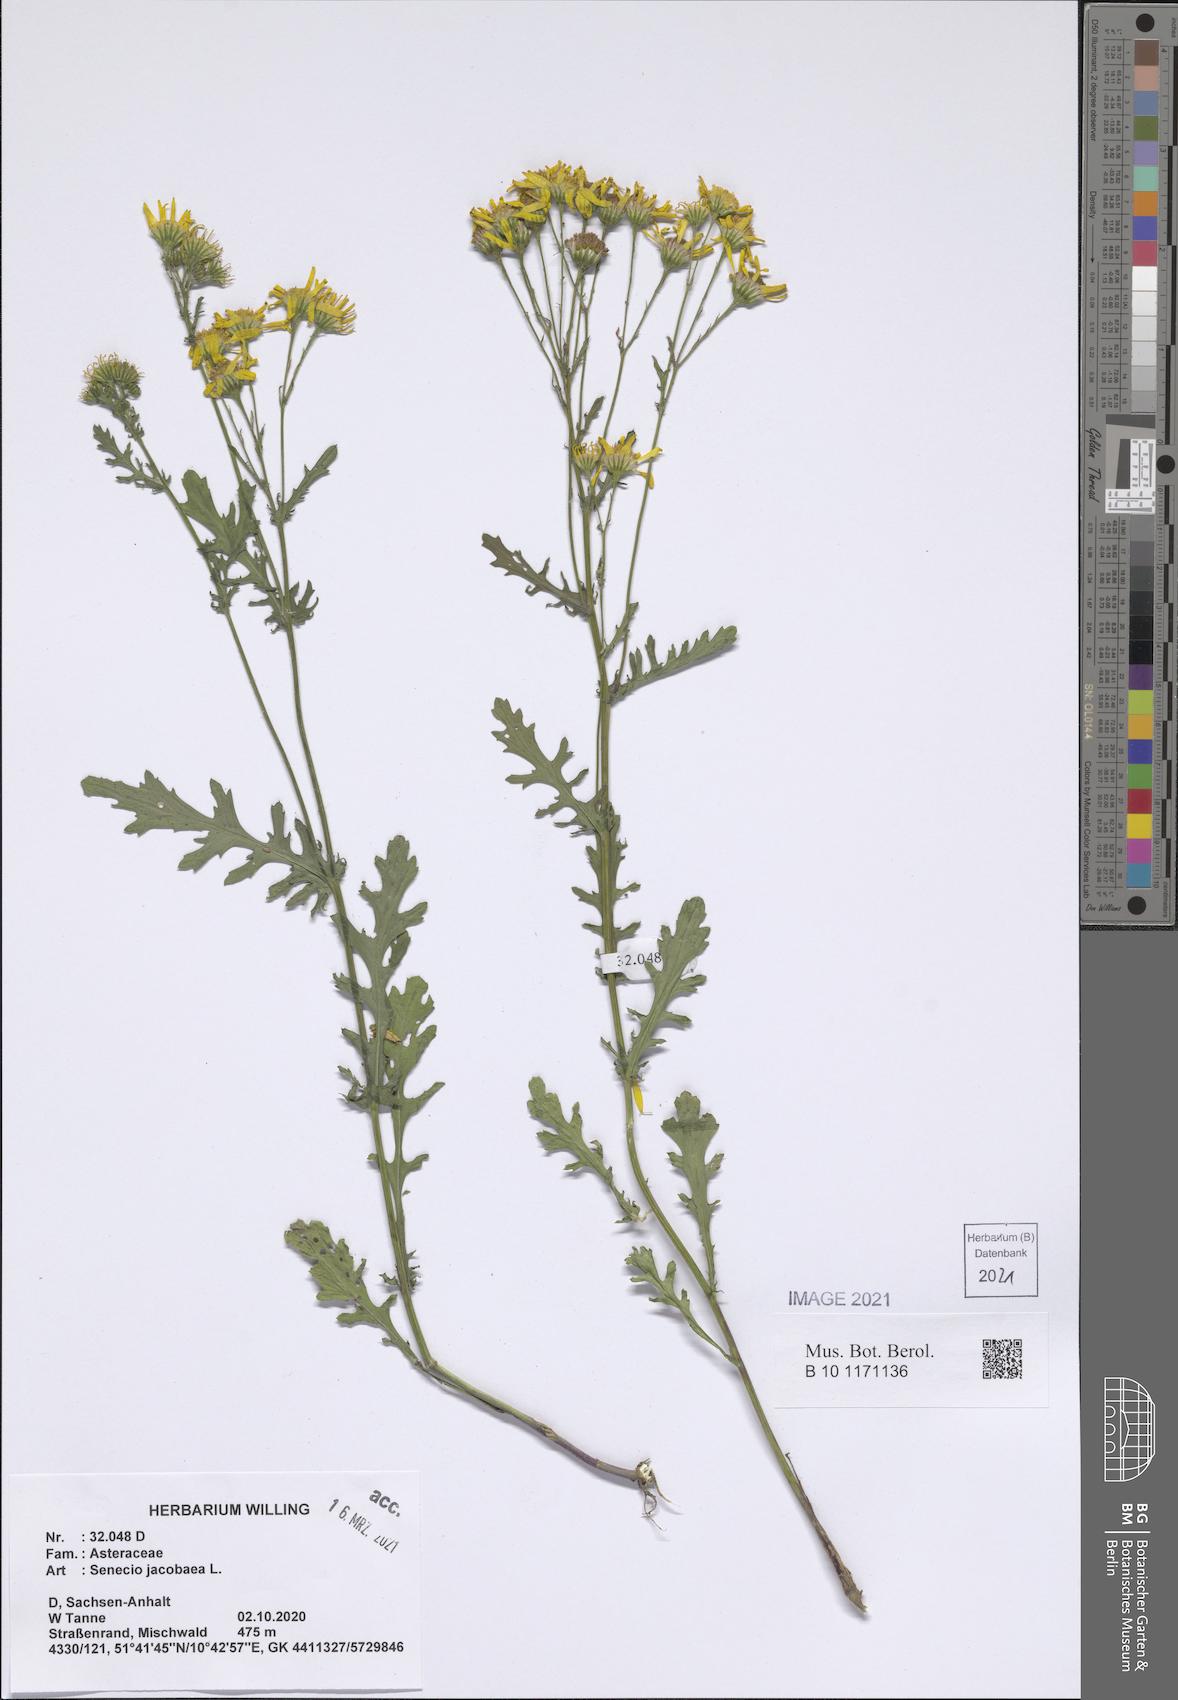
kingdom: Plantae
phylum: Tracheophyta
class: Magnoliopsida
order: Asterales
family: Asteraceae
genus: Jacobaea
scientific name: Jacobaea vulgaris
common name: Stinking willie
